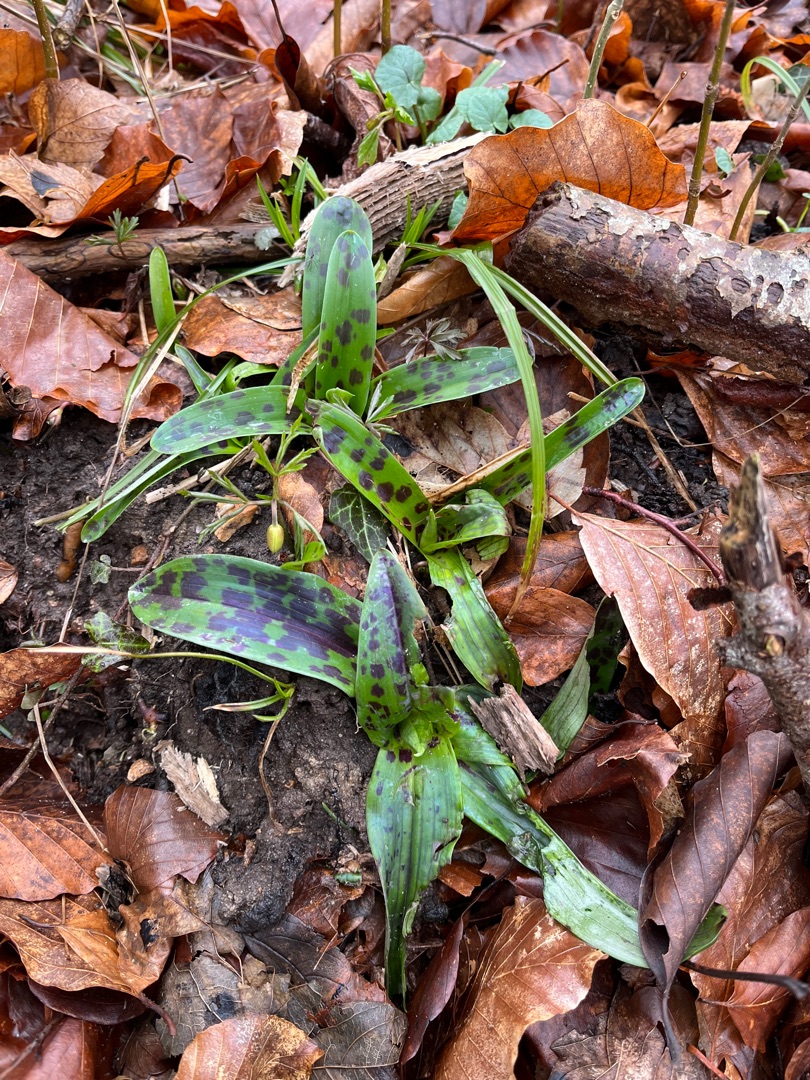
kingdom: Plantae
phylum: Tracheophyta
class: Liliopsida
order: Asparagales
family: Orchidaceae
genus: Orchis
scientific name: Orchis mascula
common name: Tyndakset gøgeurt
